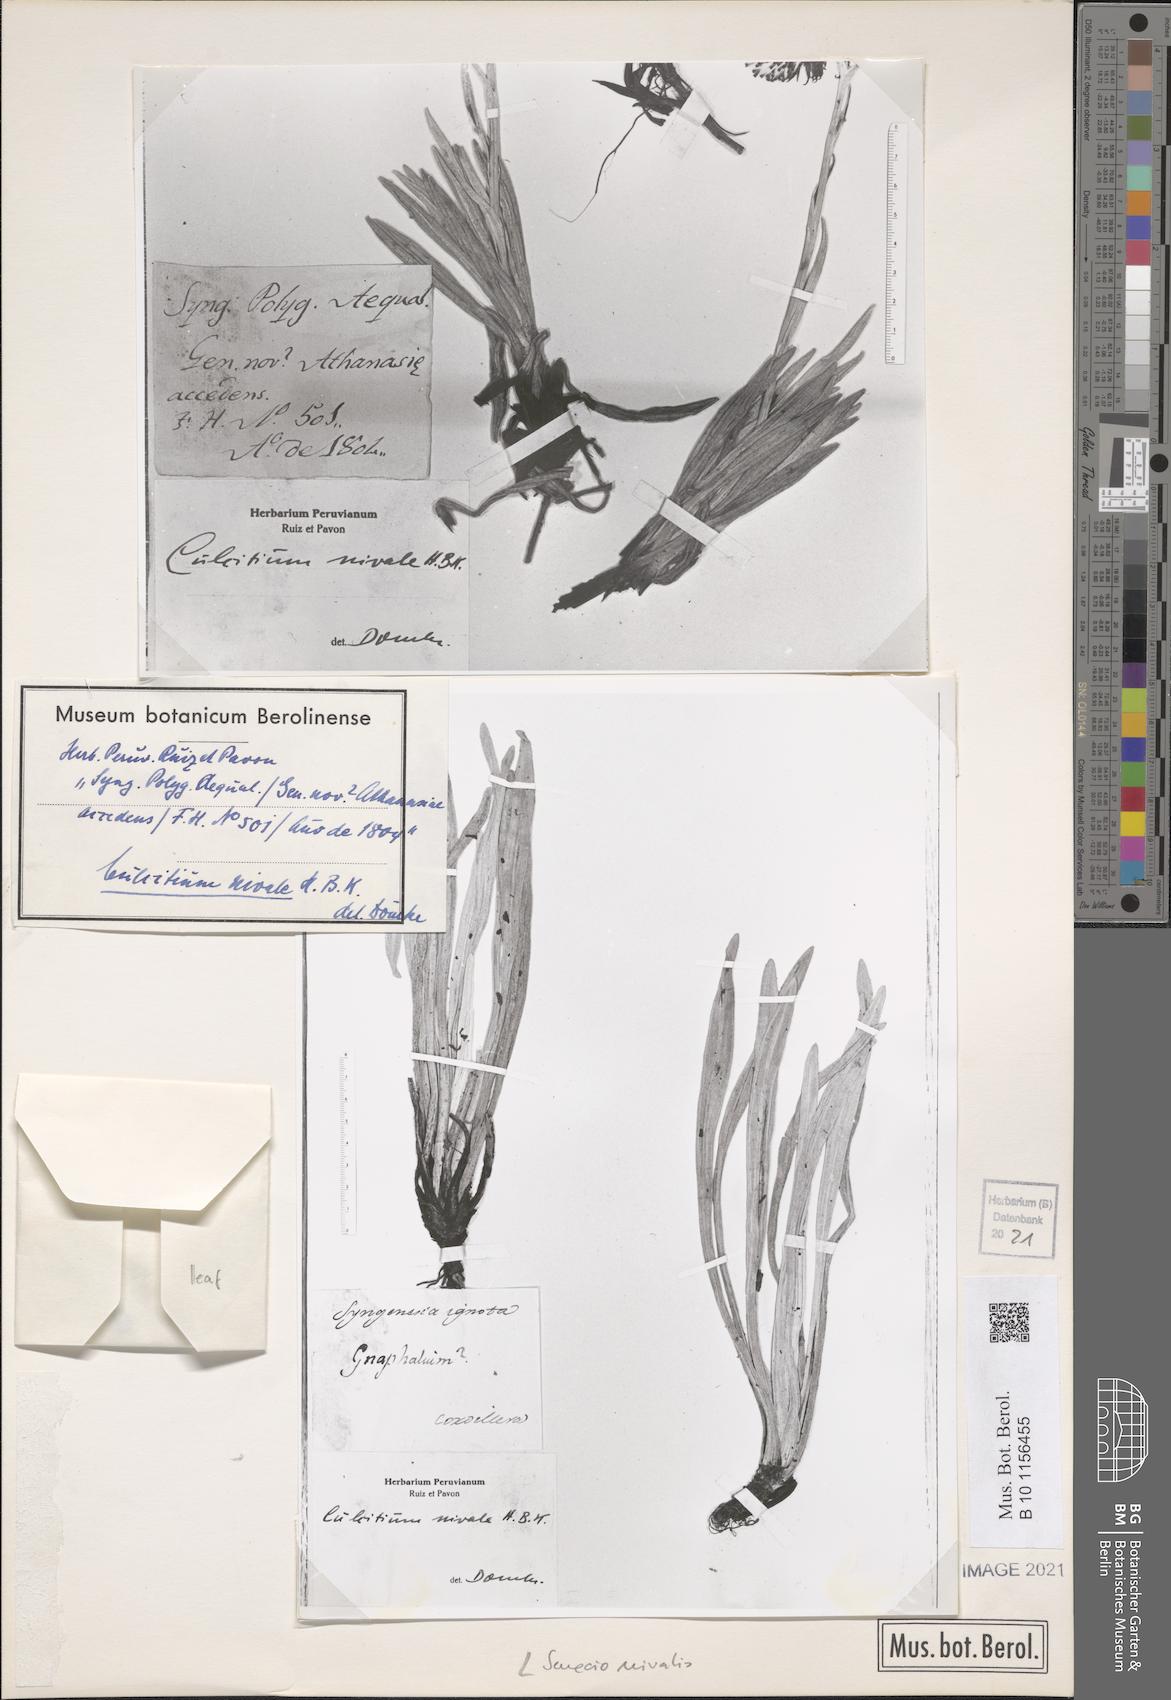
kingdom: Plantae
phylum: Tracheophyta
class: Magnoliopsida
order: Asterales
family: Asteraceae
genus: Culcitium
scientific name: Culcitium nivale
